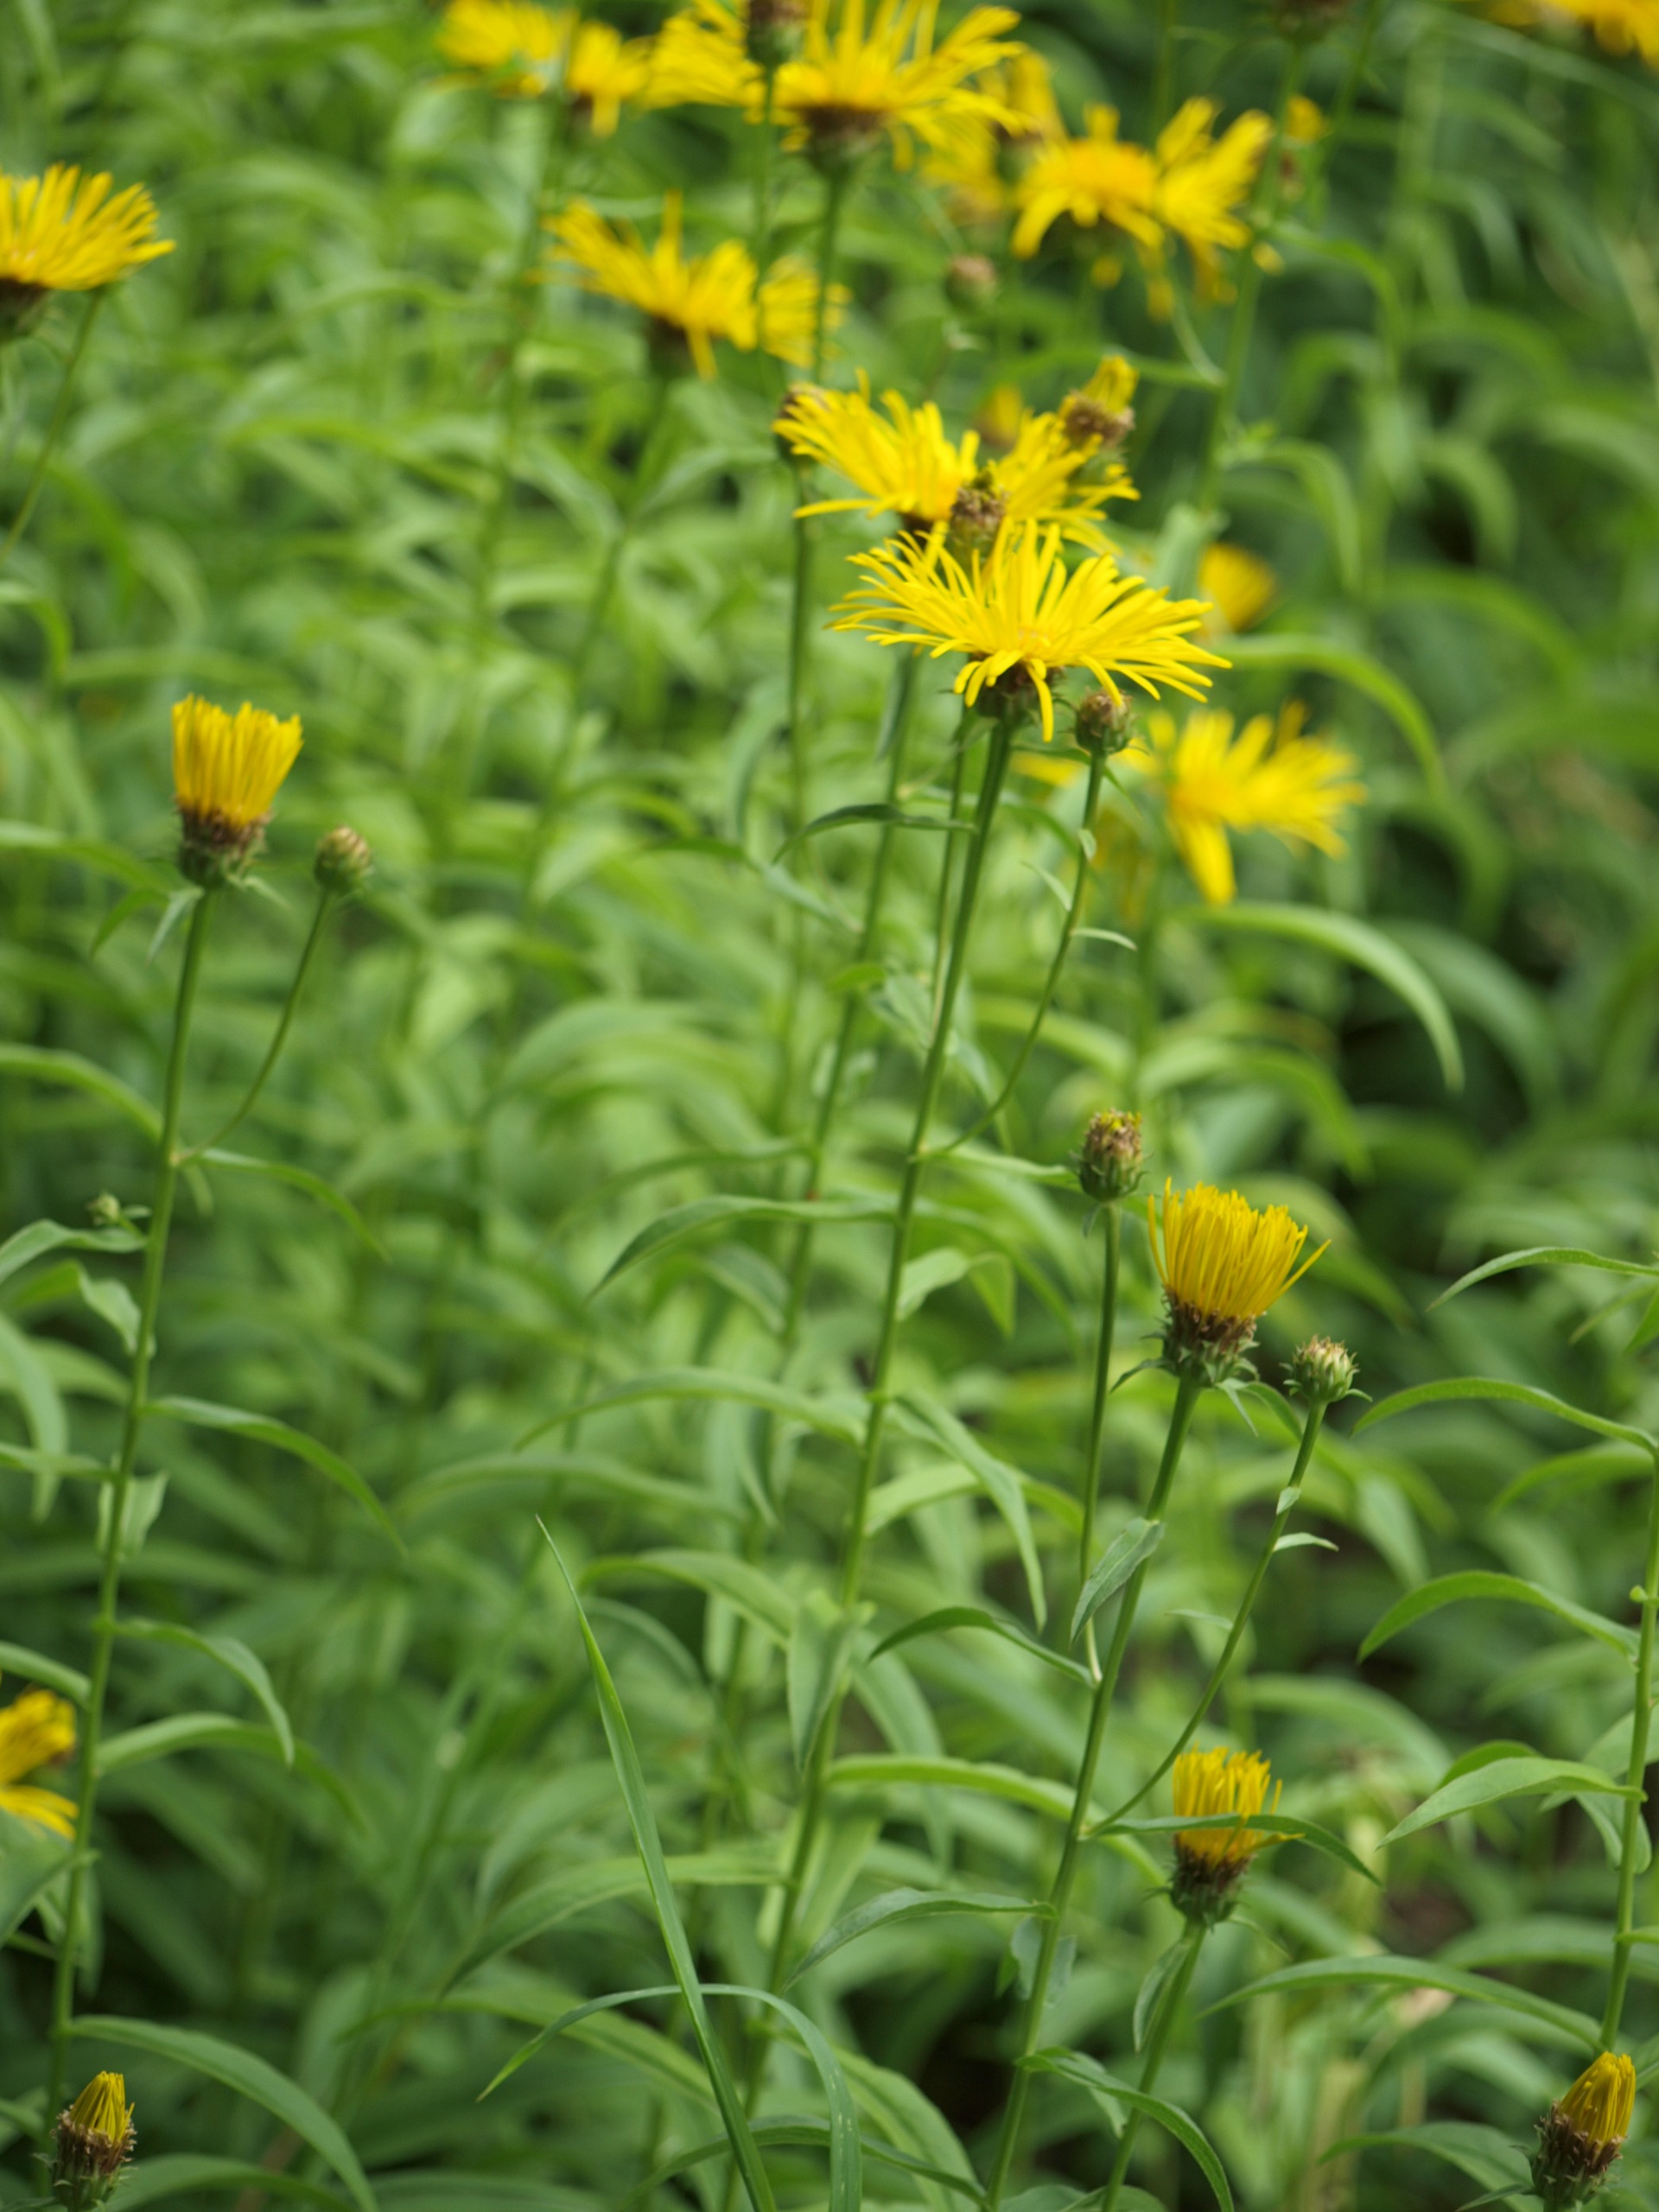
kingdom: Plantae
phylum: Tracheophyta
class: Magnoliopsida
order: Asterales
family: Asteraceae
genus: Pentanema
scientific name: Pentanema salicinum
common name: Pile-alant
